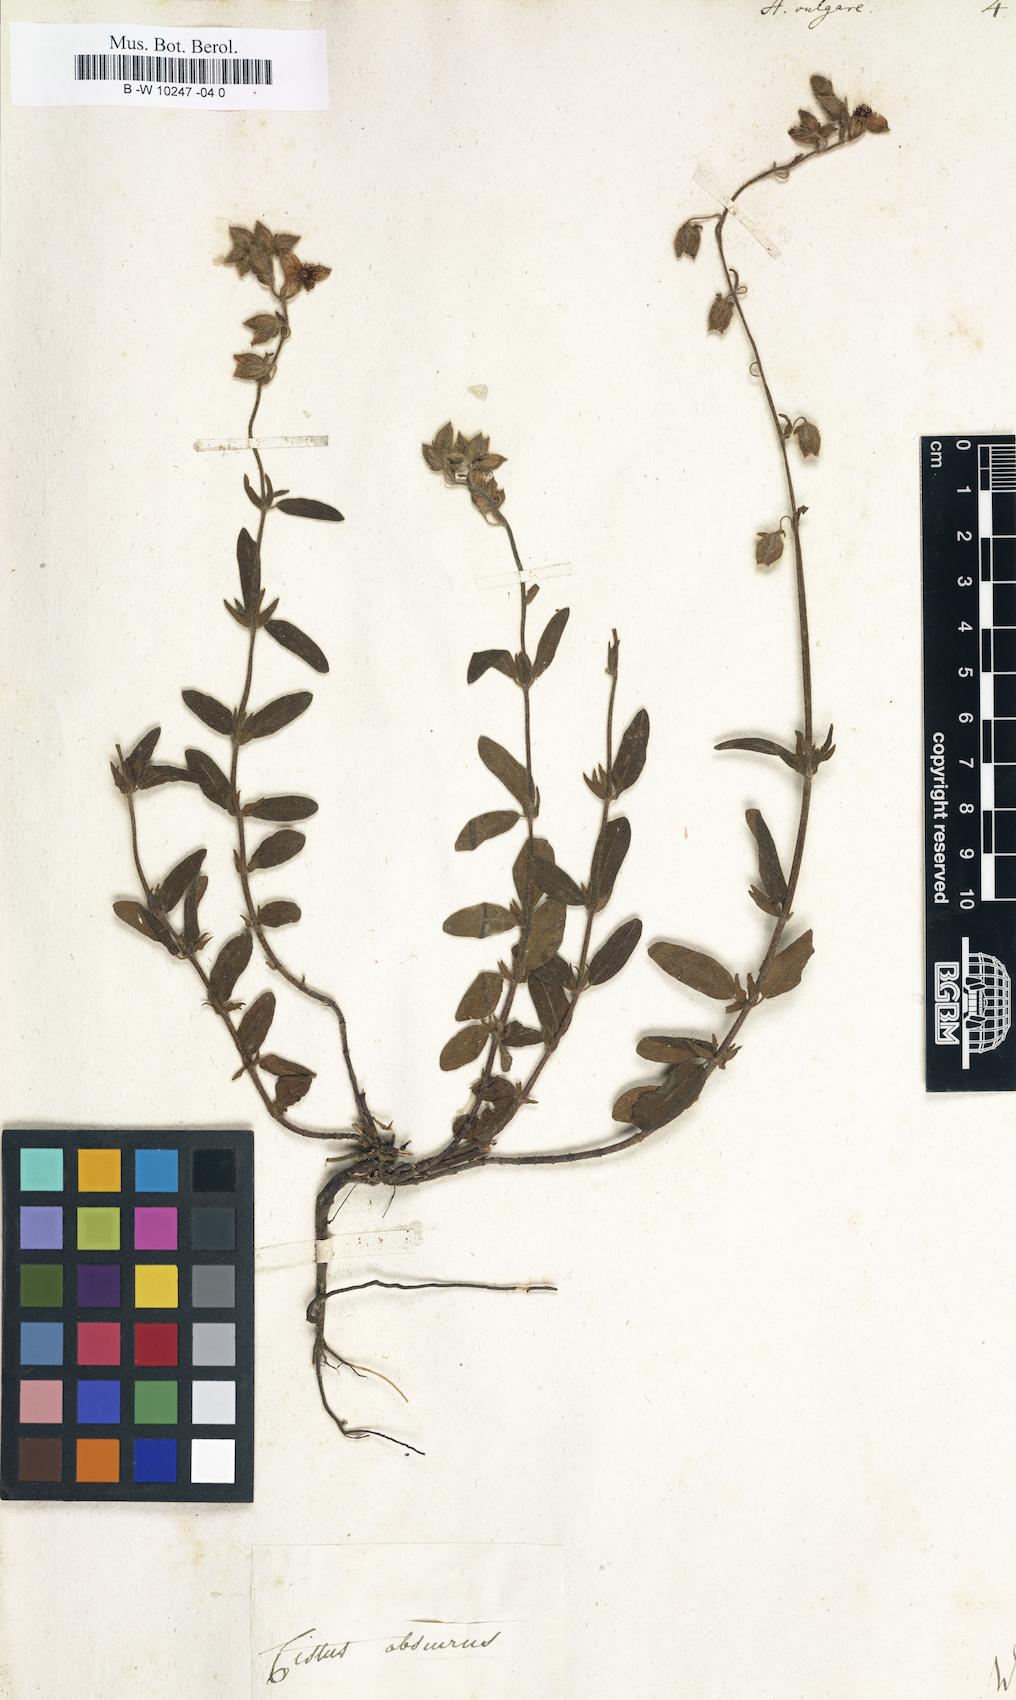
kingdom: Plantae
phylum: Tracheophyta
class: Magnoliopsida
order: Malvales
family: Cistaceae
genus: Helianthemum
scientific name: Helianthemum nummularium
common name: Common rock-rose
